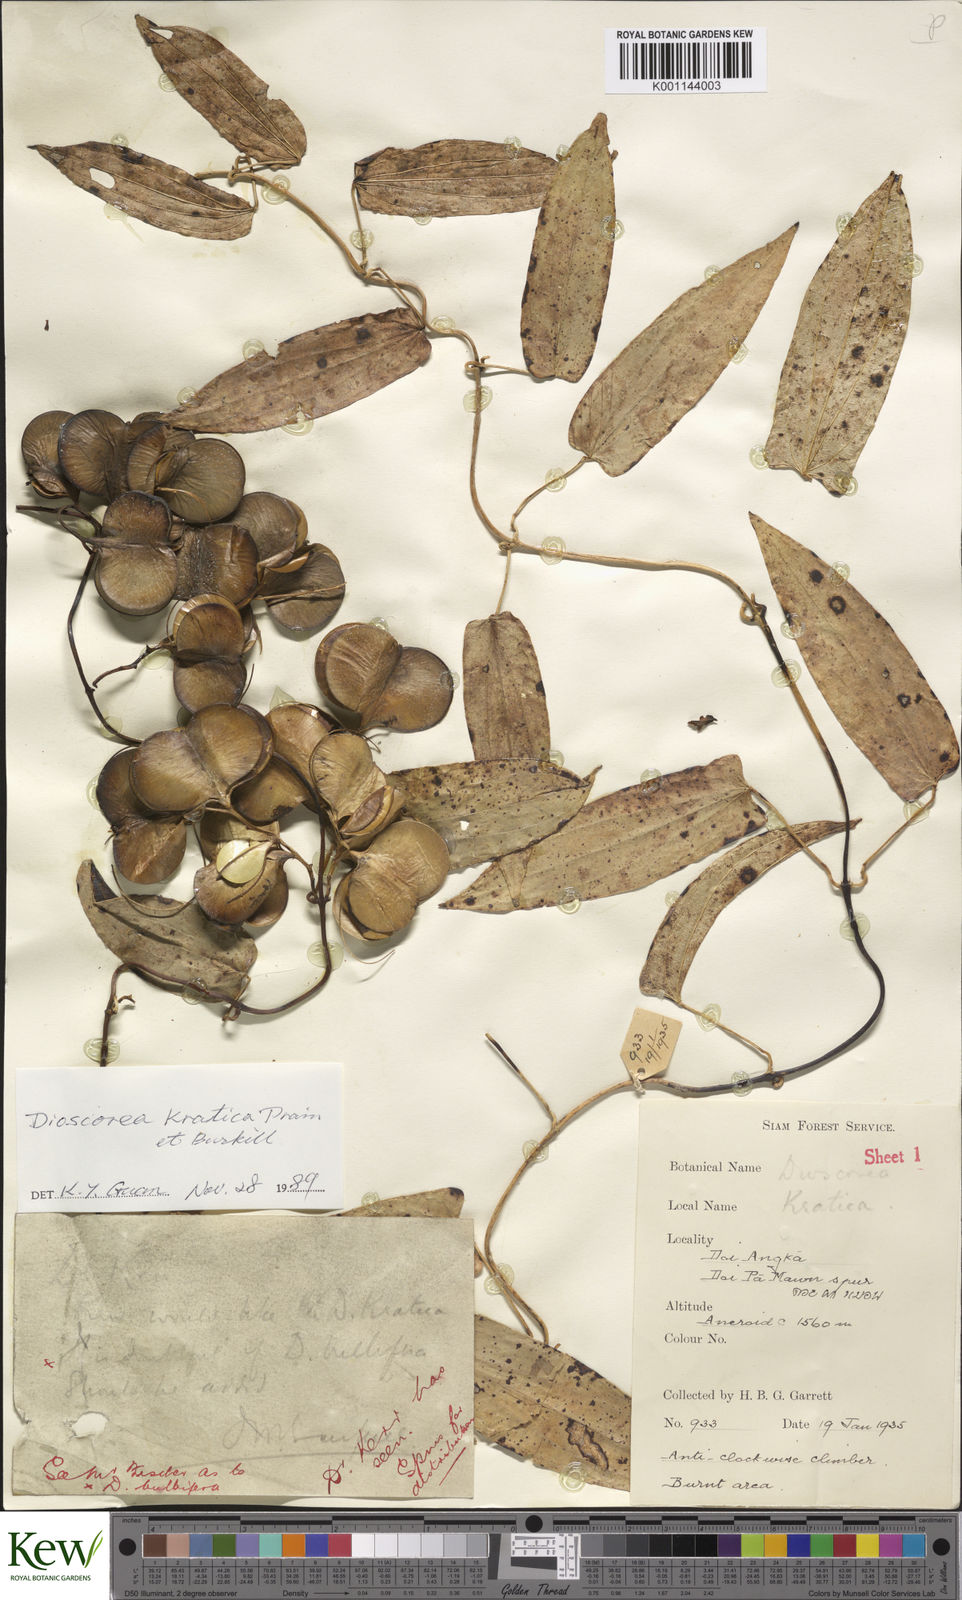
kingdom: Plantae
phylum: Tracheophyta
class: Liliopsida
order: Dioscoreales
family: Dioscoreaceae
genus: Dioscorea
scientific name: Dioscorea kratica
